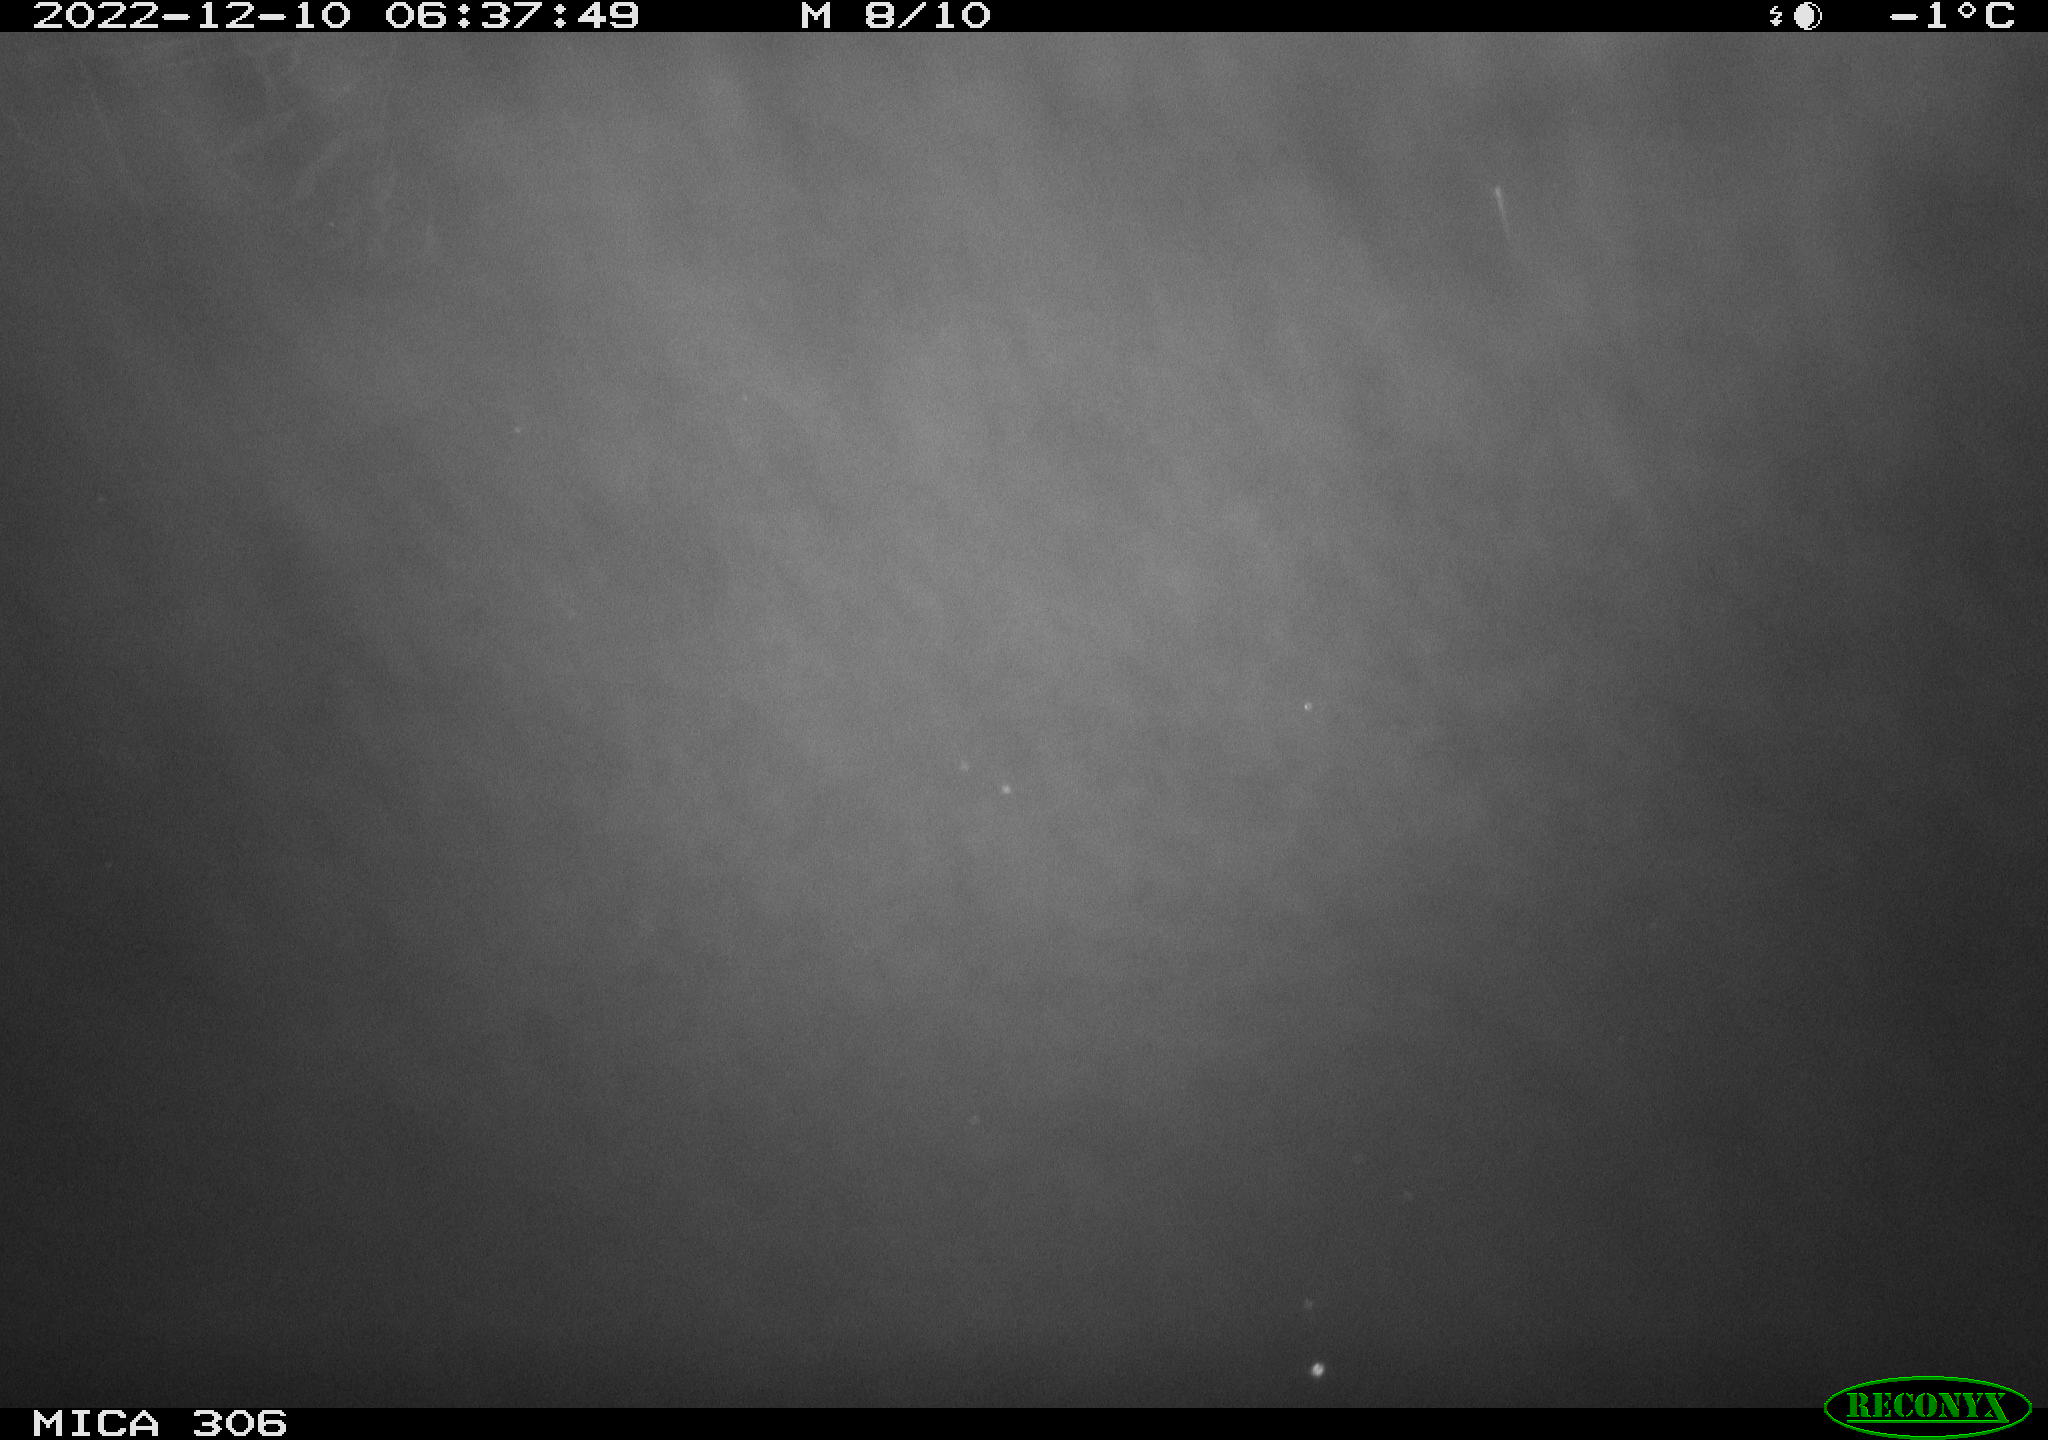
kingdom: Animalia
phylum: Chordata
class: Mammalia
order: Rodentia
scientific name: Rodentia
